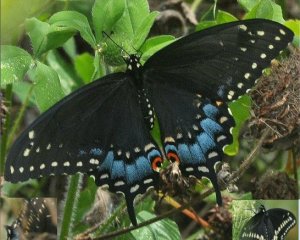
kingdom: Animalia
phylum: Arthropoda
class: Insecta
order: Lepidoptera
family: Papilionidae
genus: Papilio
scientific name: Papilio polyxenes
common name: Black Swallowtail
